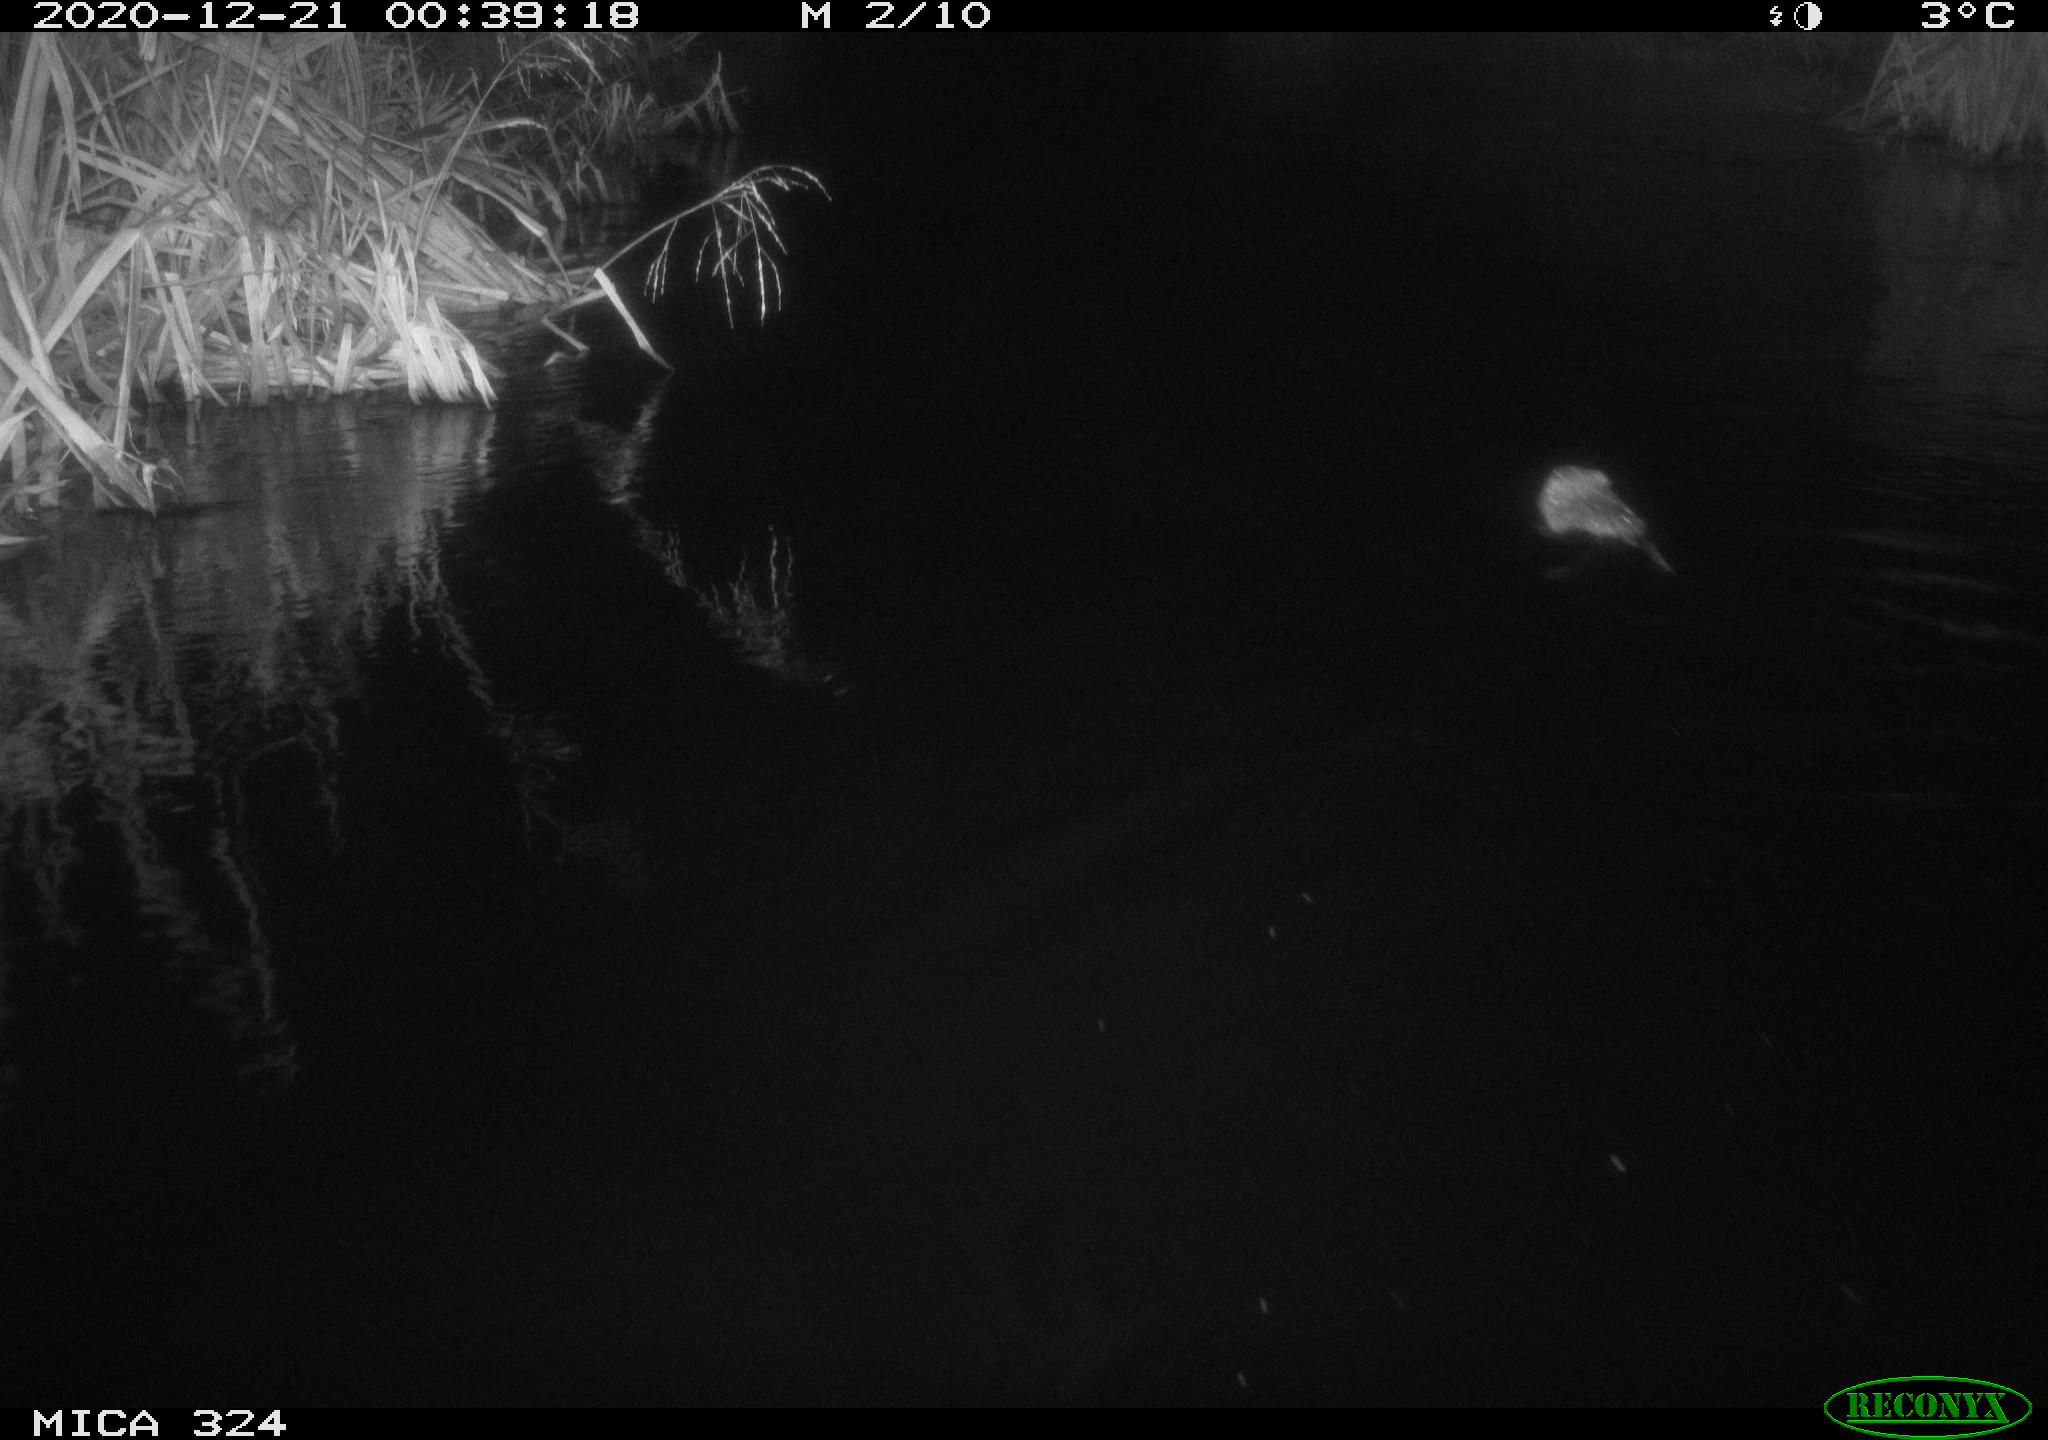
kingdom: Animalia
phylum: Chordata
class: Mammalia
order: Rodentia
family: Cricetidae
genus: Ondatra
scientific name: Ondatra zibethicus
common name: Muskrat
